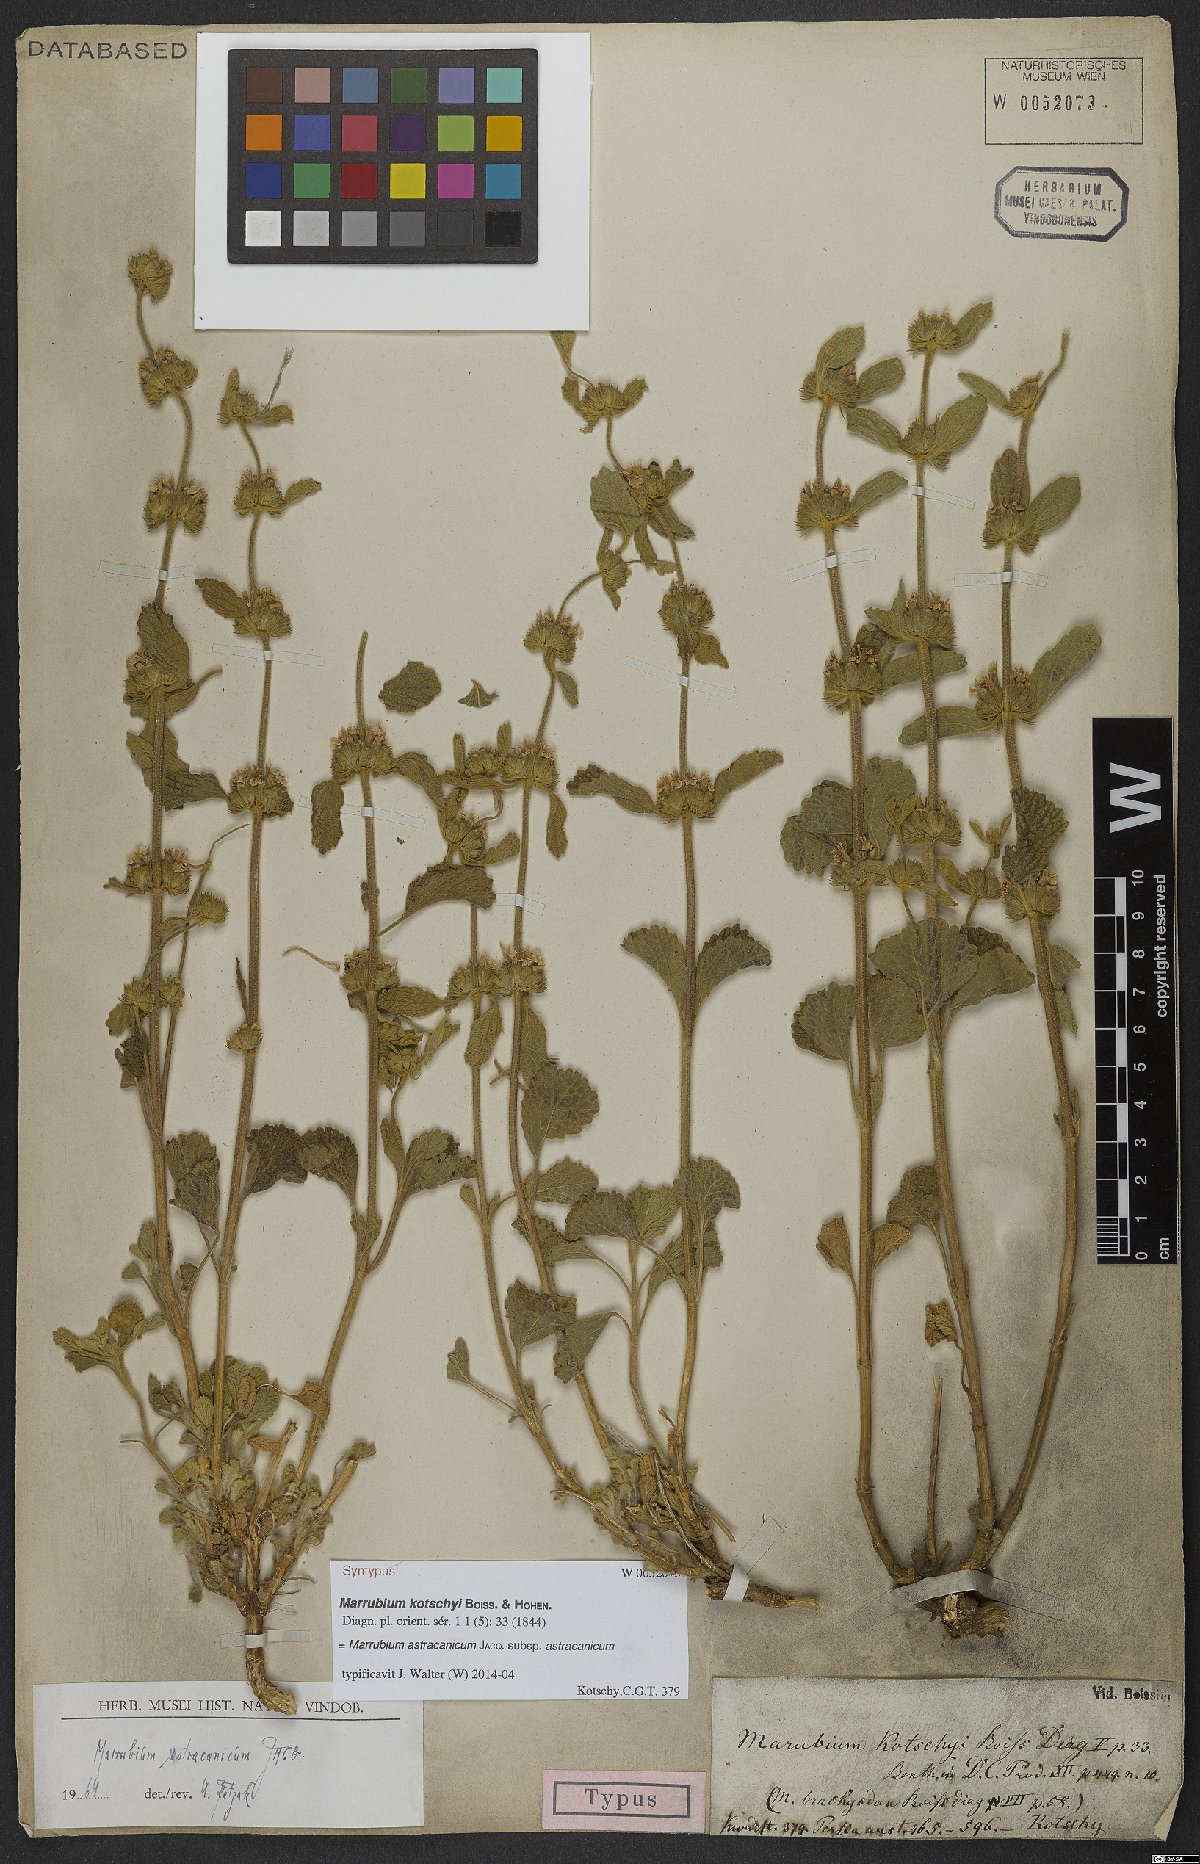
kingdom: Plantae
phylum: Tracheophyta
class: Magnoliopsida
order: Lamiales
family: Lamiaceae
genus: Marrubium
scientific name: Marrubium astracanicum
